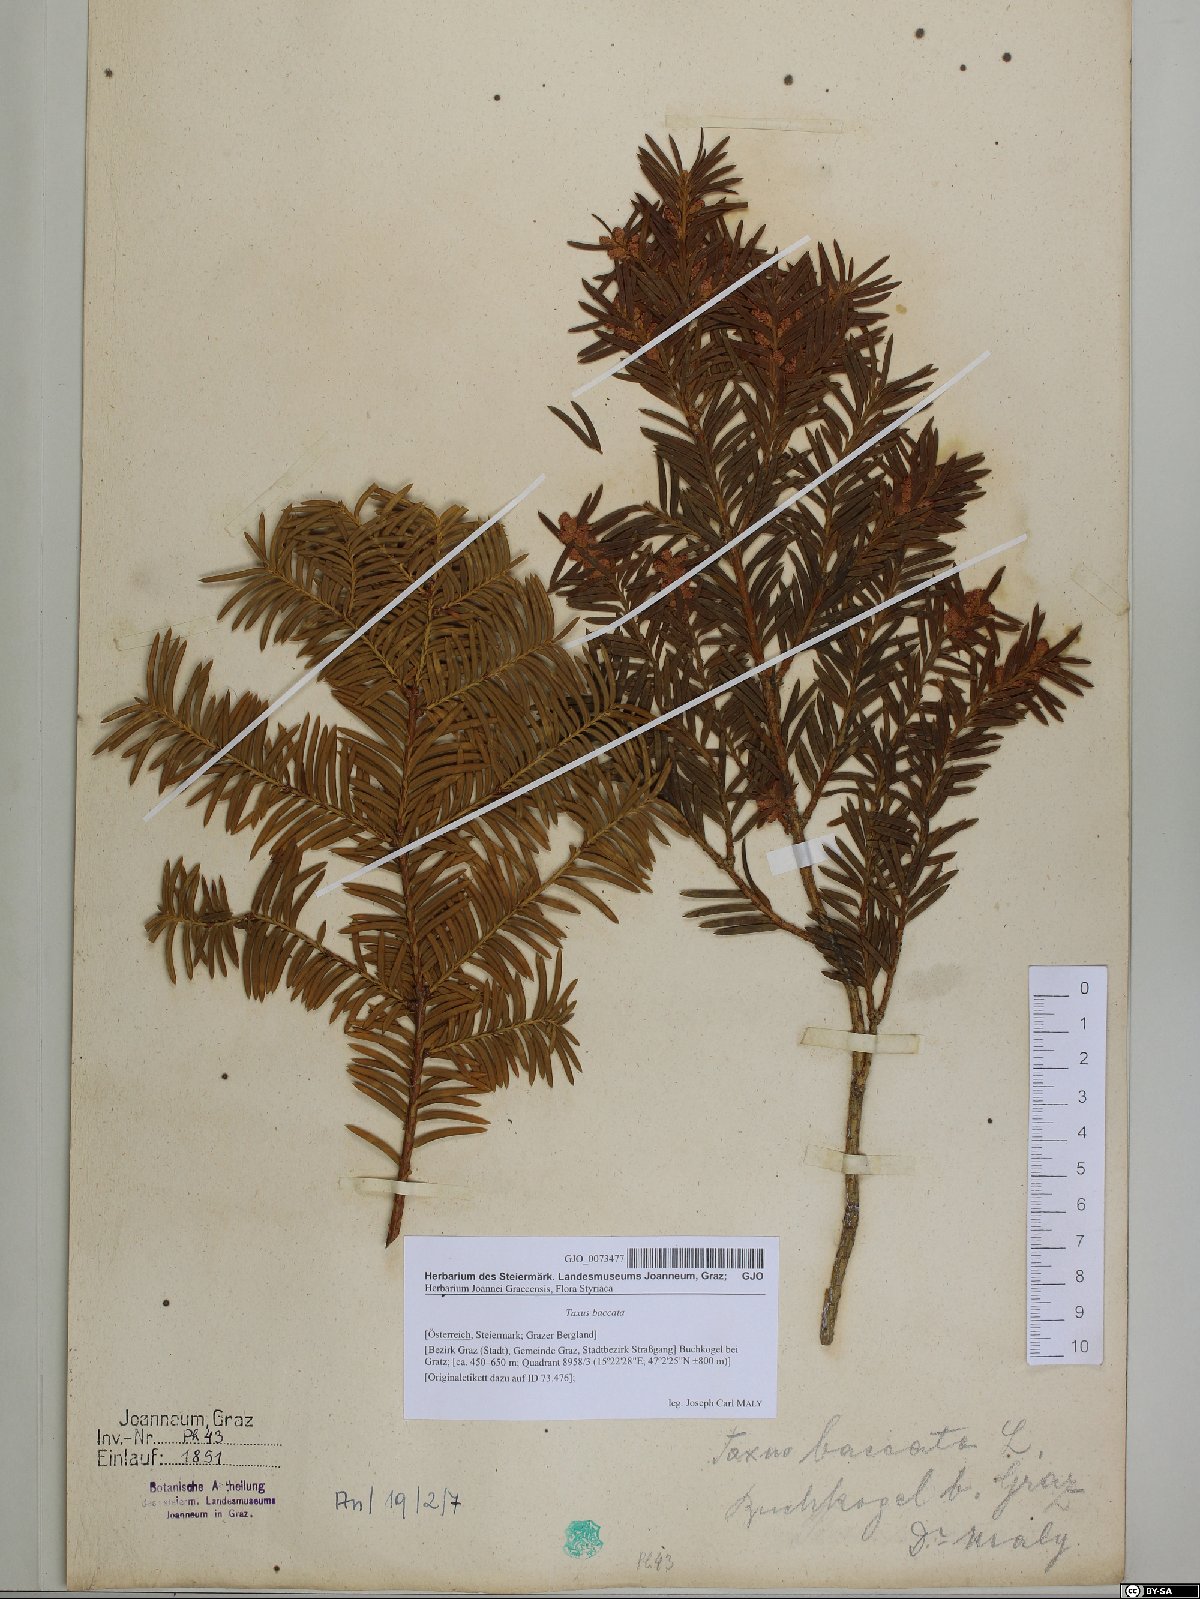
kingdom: Plantae
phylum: Tracheophyta
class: Pinopsida
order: Pinales
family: Taxaceae
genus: Taxus
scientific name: Taxus baccata
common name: Yew
